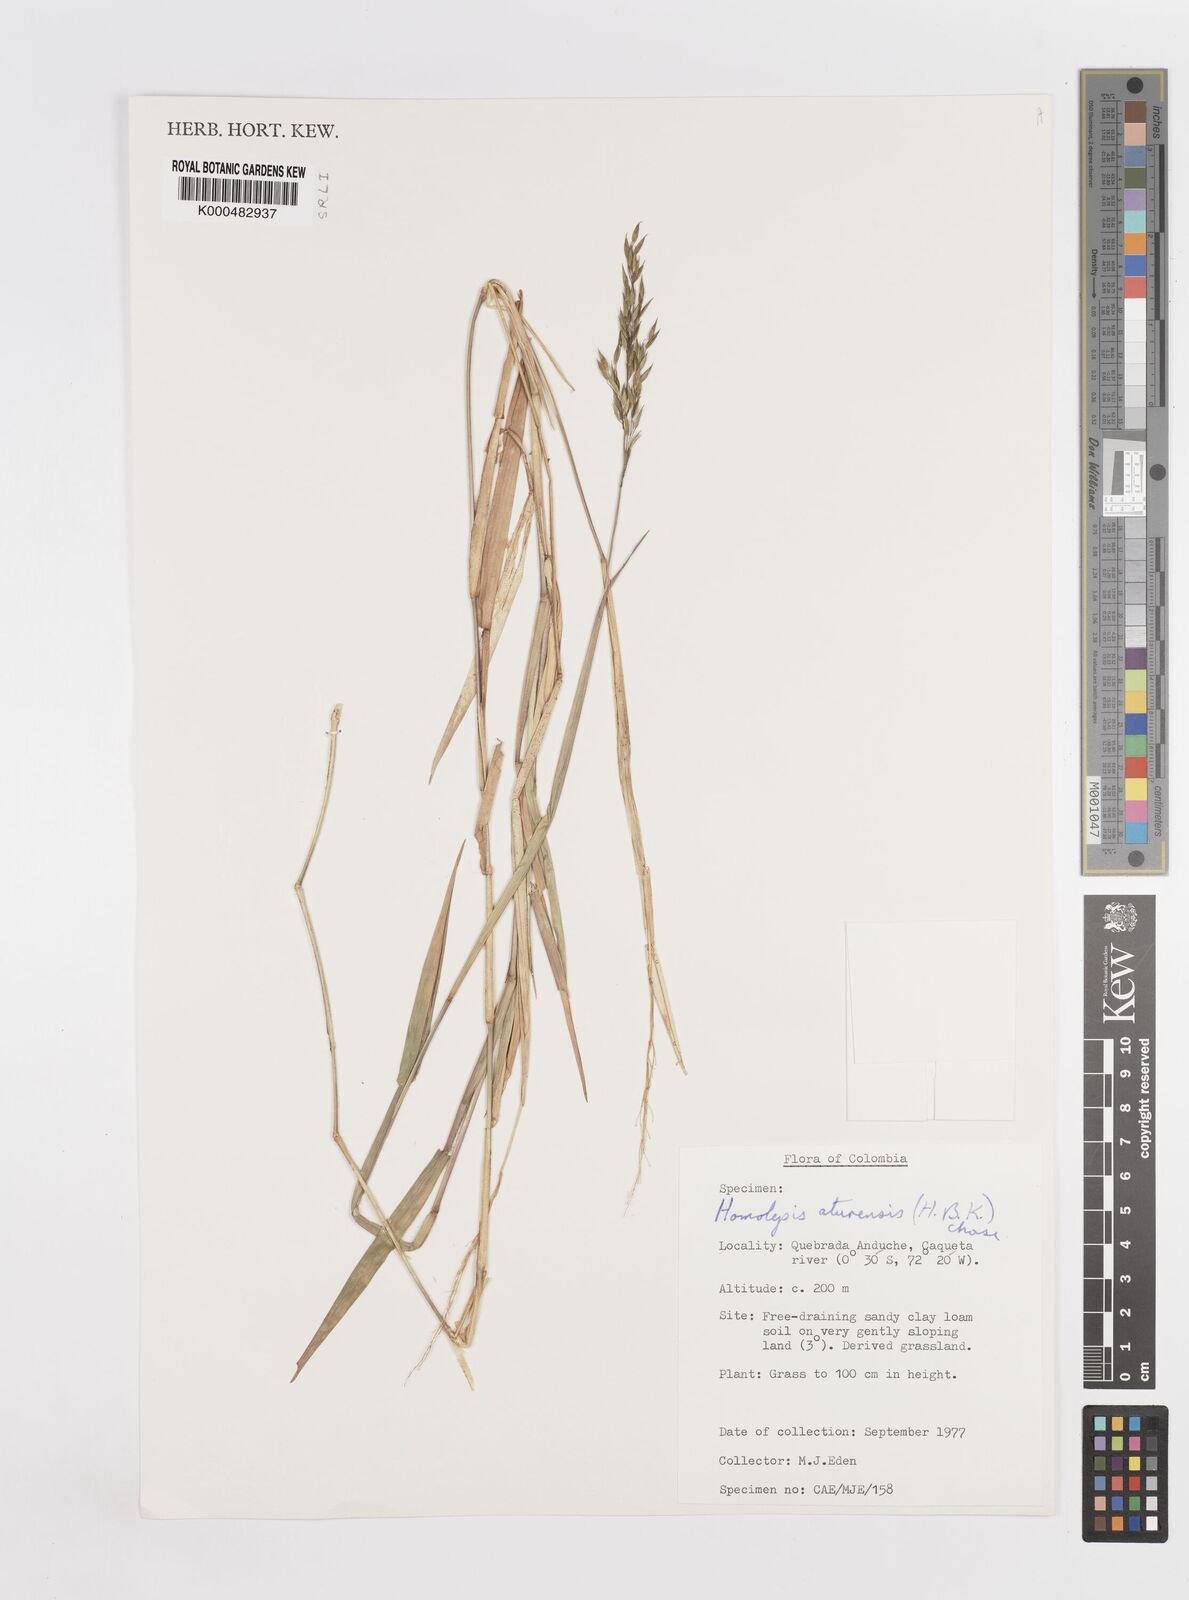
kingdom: Plantae
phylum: Tracheophyta
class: Liliopsida
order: Poales
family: Poaceae
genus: Homolepis
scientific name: Homolepis aturensis
